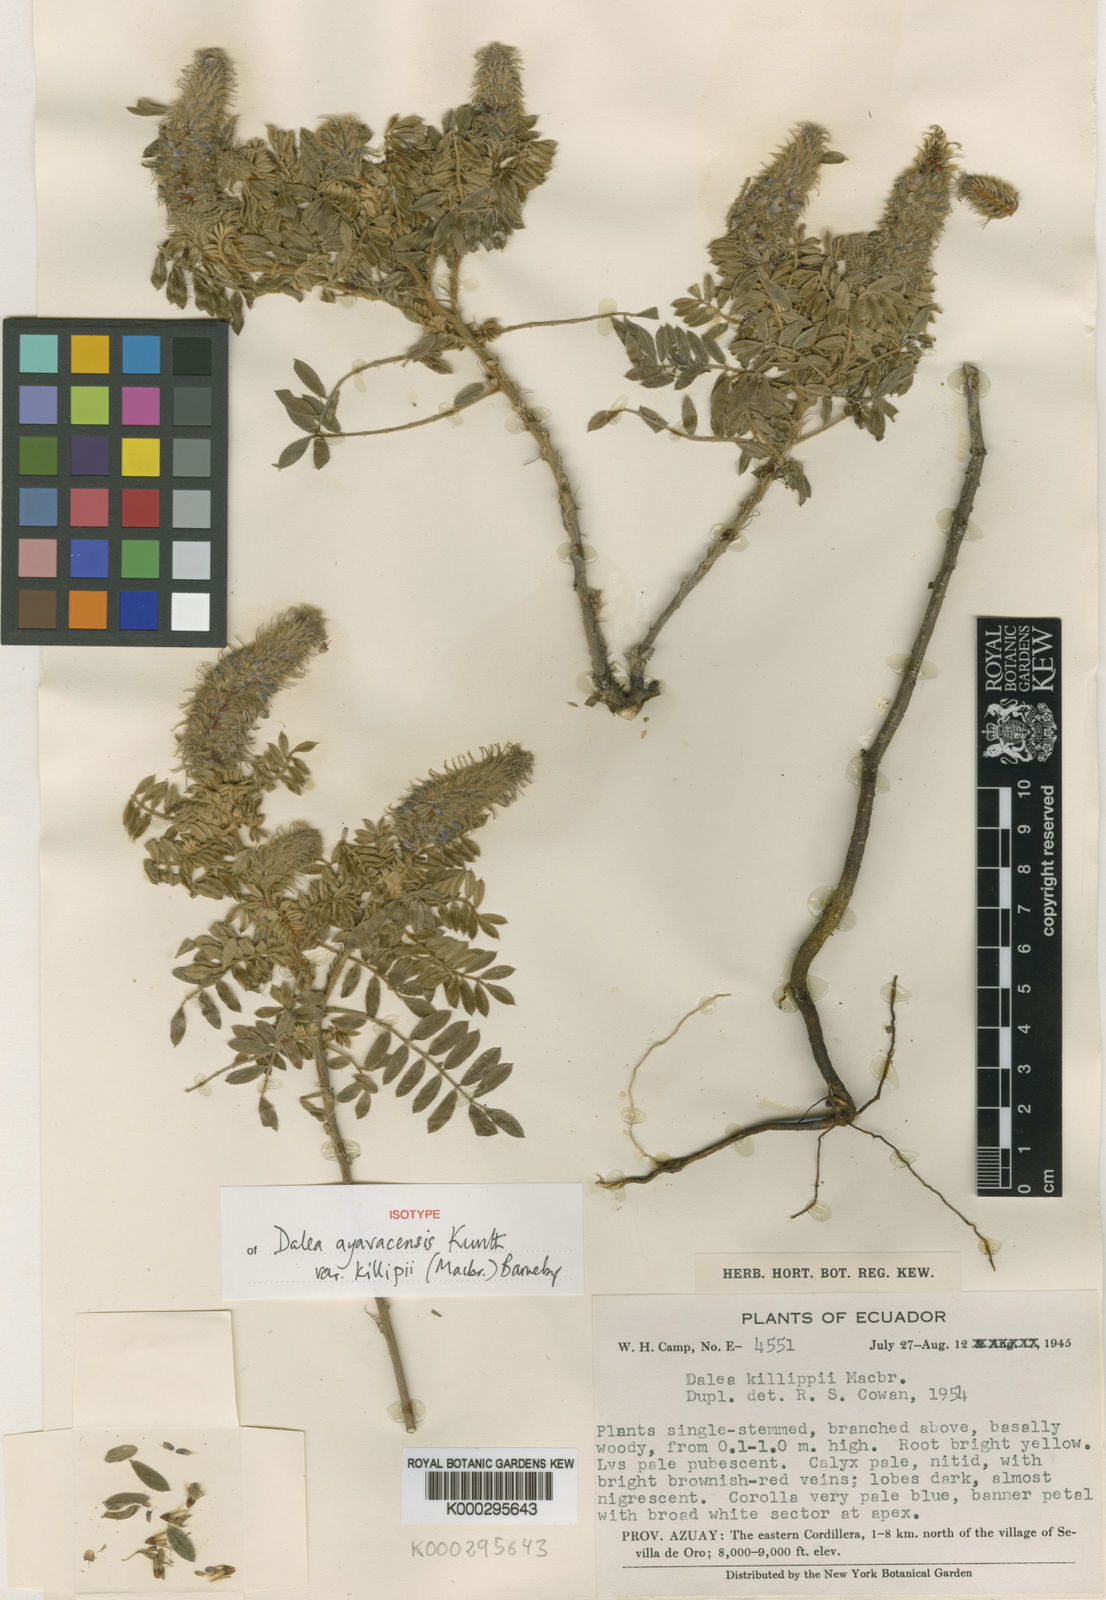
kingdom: Plantae
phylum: Tracheophyta
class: Magnoliopsida
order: Fabales
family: Fabaceae
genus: Dalea
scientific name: Dalea
